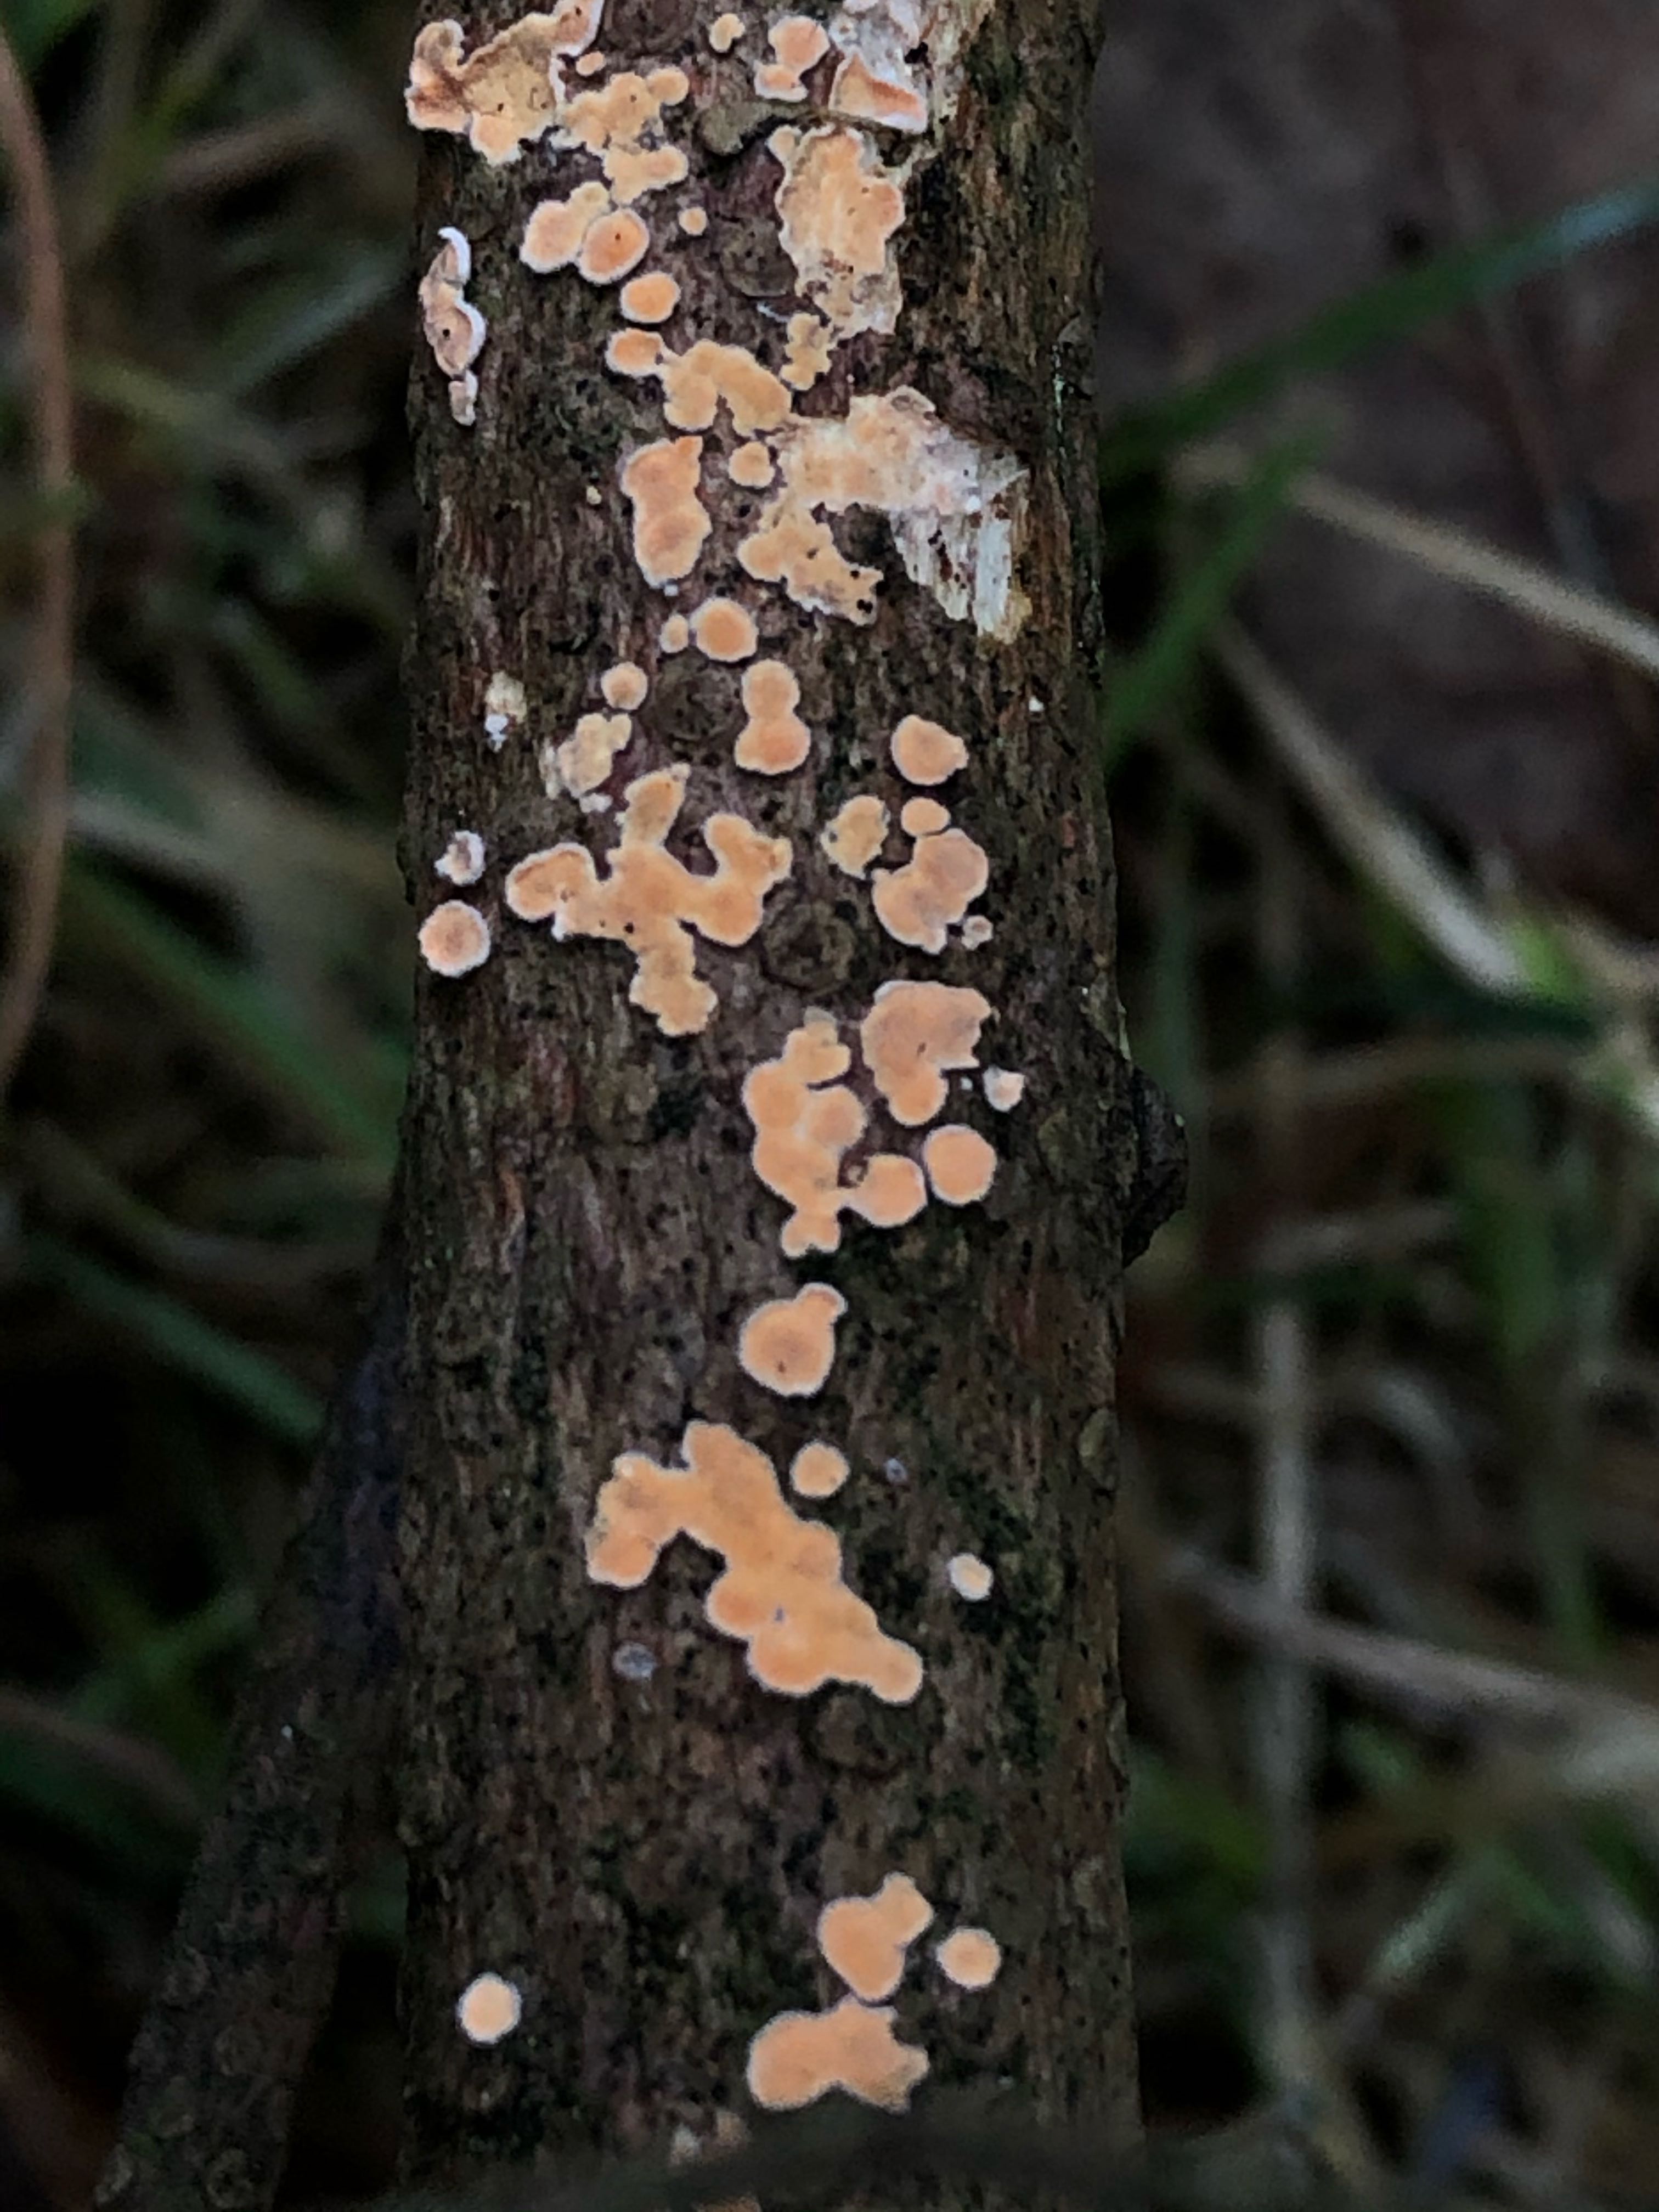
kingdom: Fungi
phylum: Basidiomycota
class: Agaricomycetes
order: Russulales
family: Stereaceae
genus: Aleurodiscus
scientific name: Aleurodiscus amorphus
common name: orange skiveskorpe
